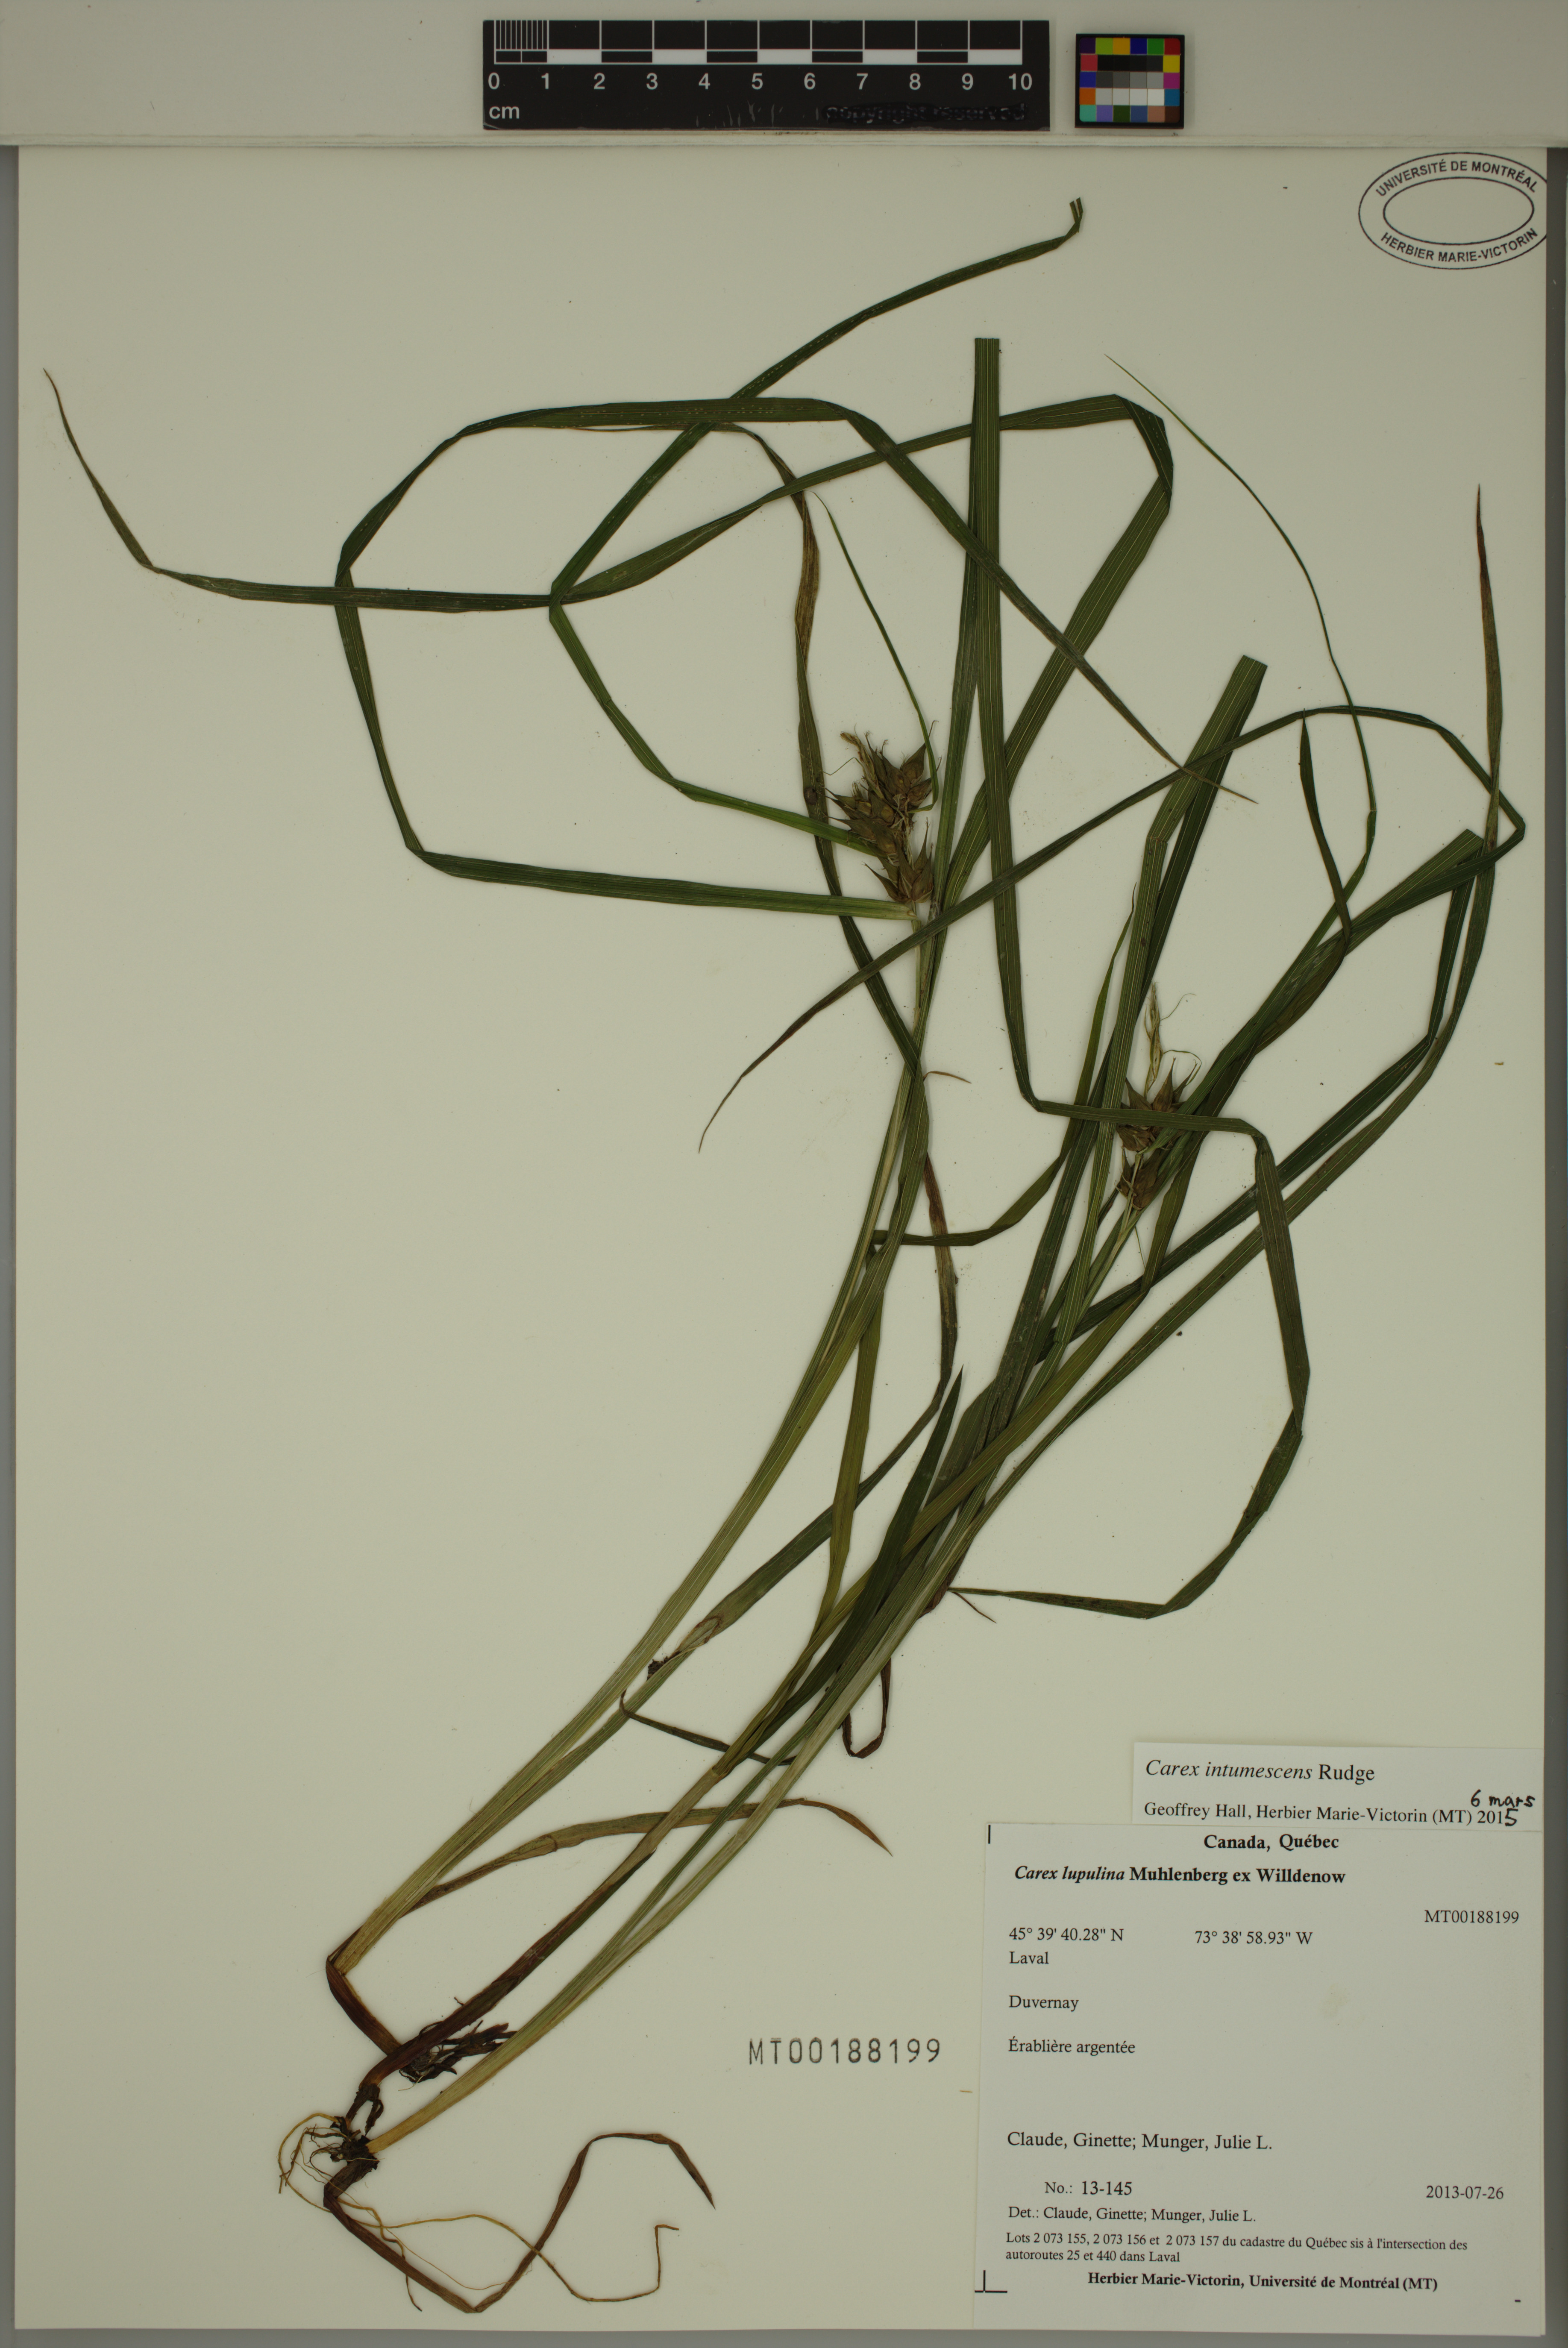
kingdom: Plantae
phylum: Tracheophyta
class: Liliopsida
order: Poales
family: Cyperaceae
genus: Carex
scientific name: Carex intumescens
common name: Greater bladder sedge
